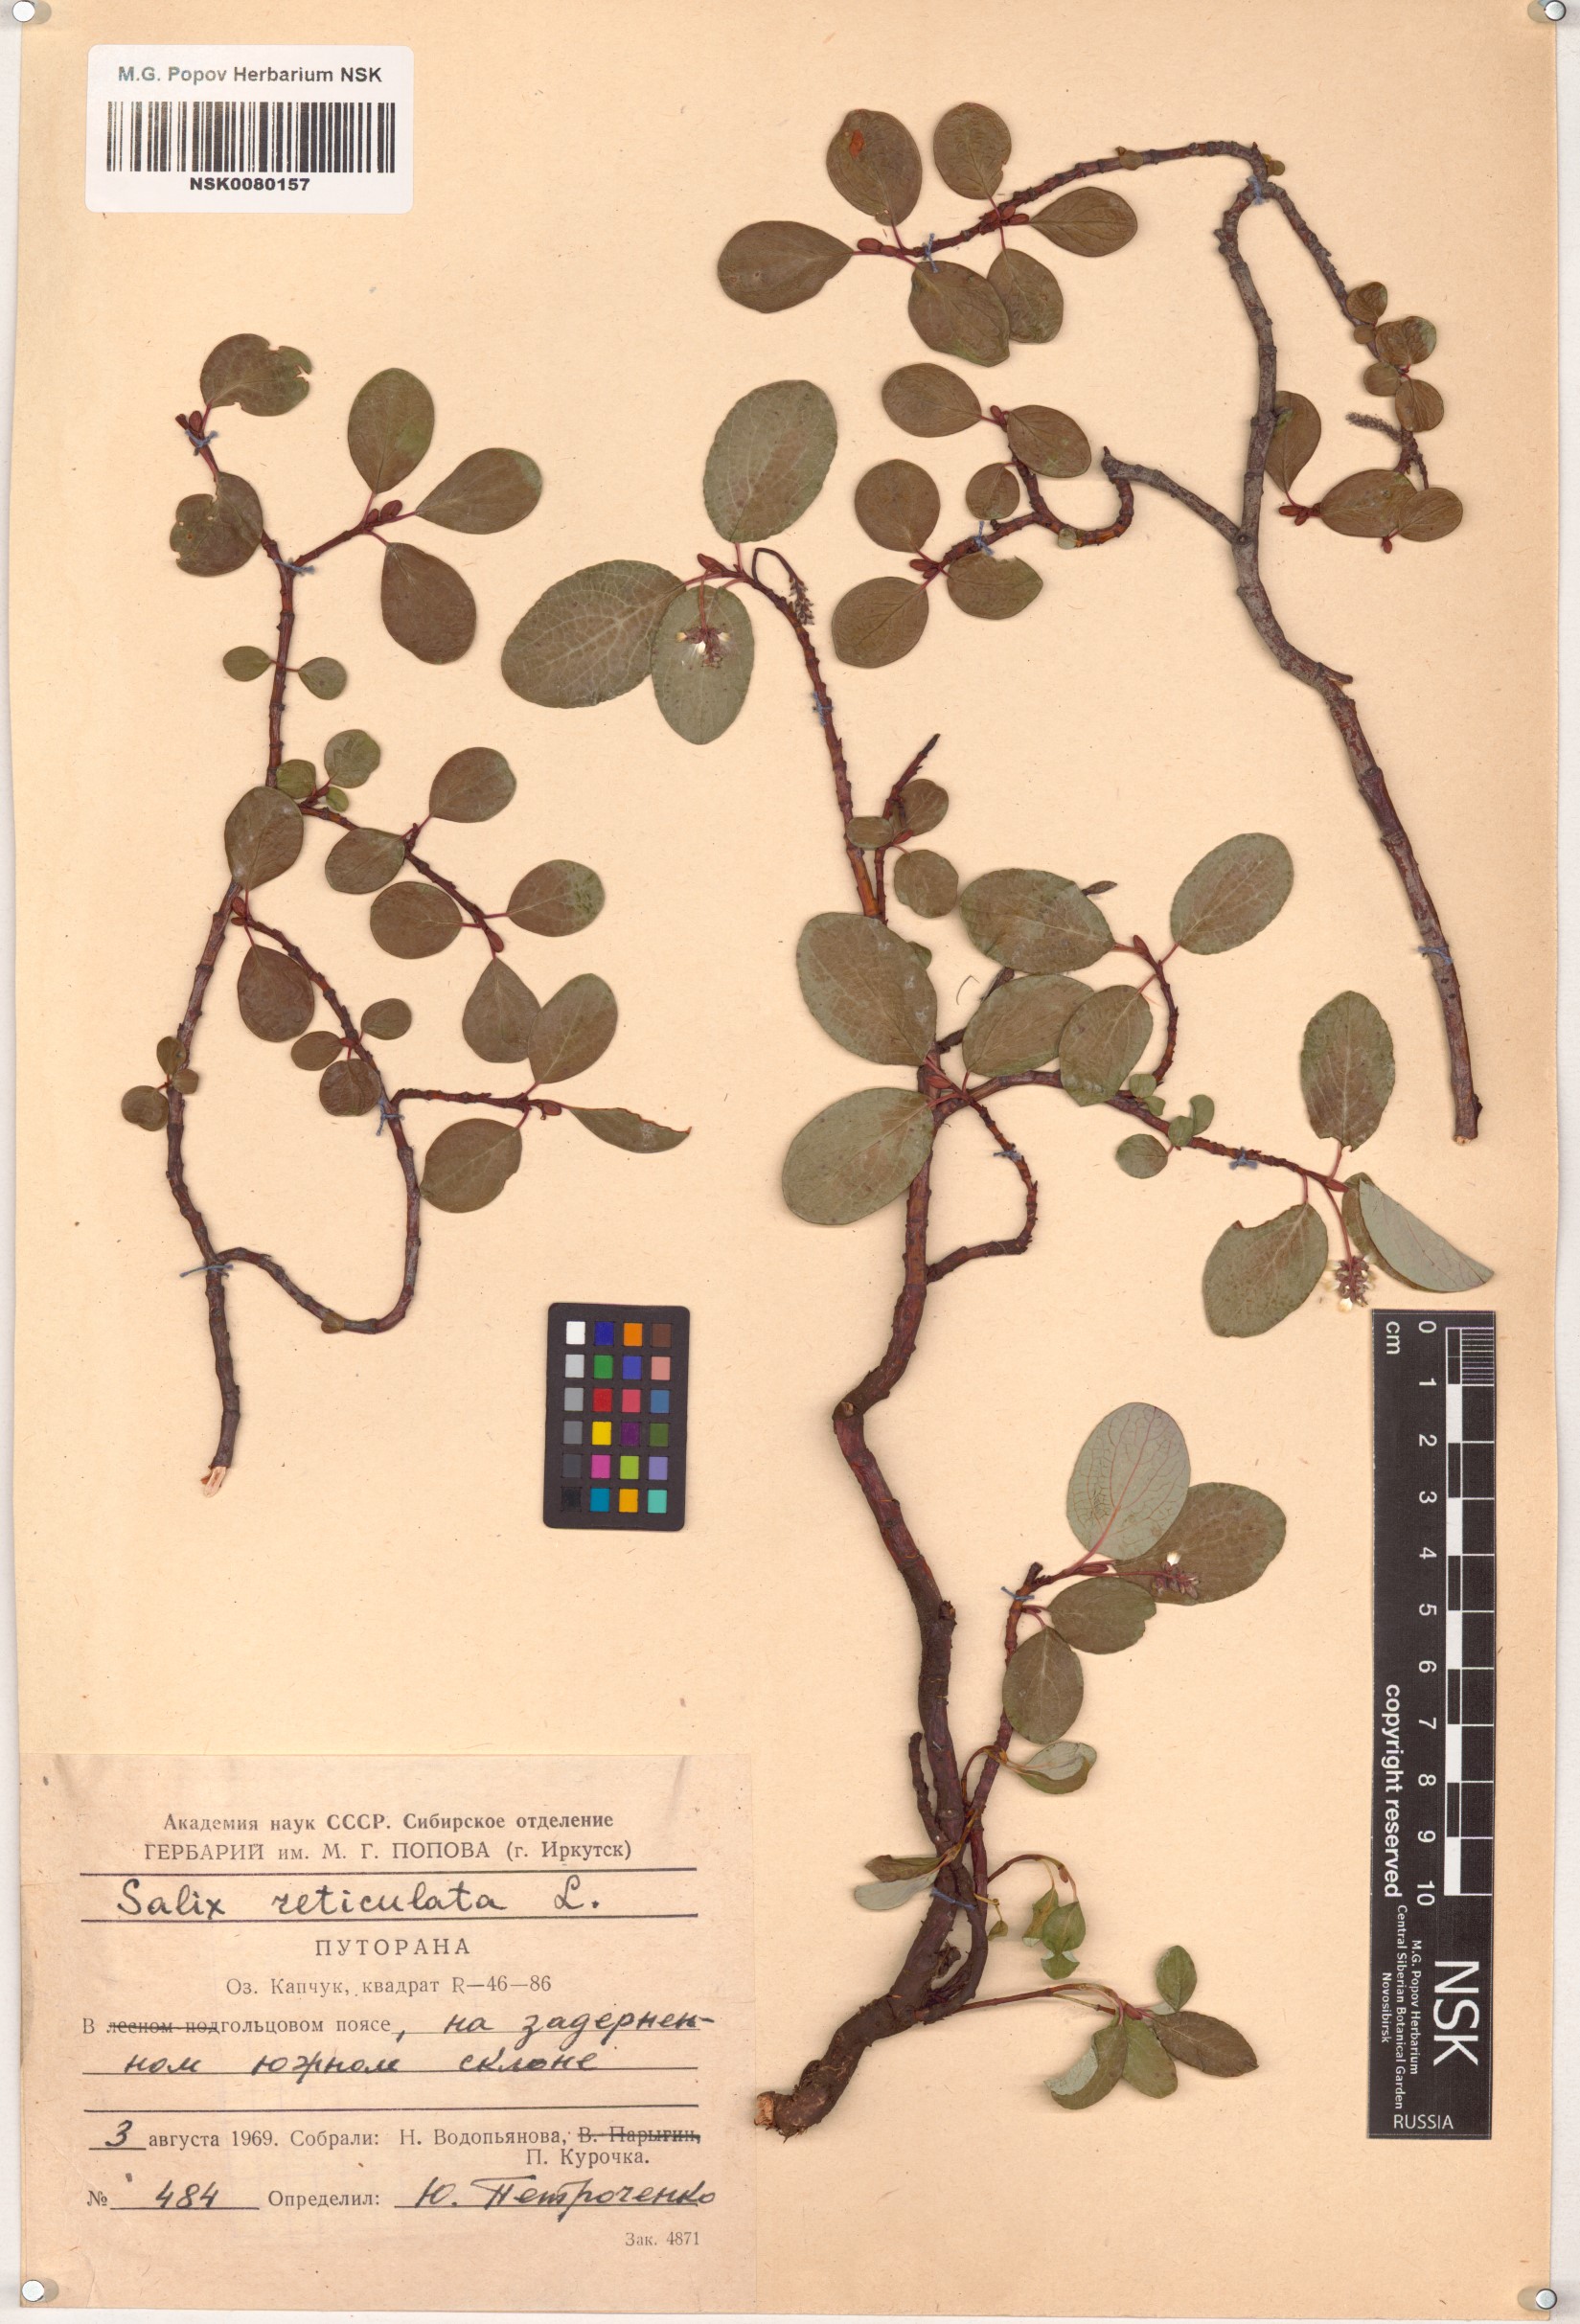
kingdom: Plantae
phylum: Tracheophyta
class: Magnoliopsida
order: Malpighiales
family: Salicaceae
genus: Salix
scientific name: Salix reticulata
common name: Net-leaved willow
